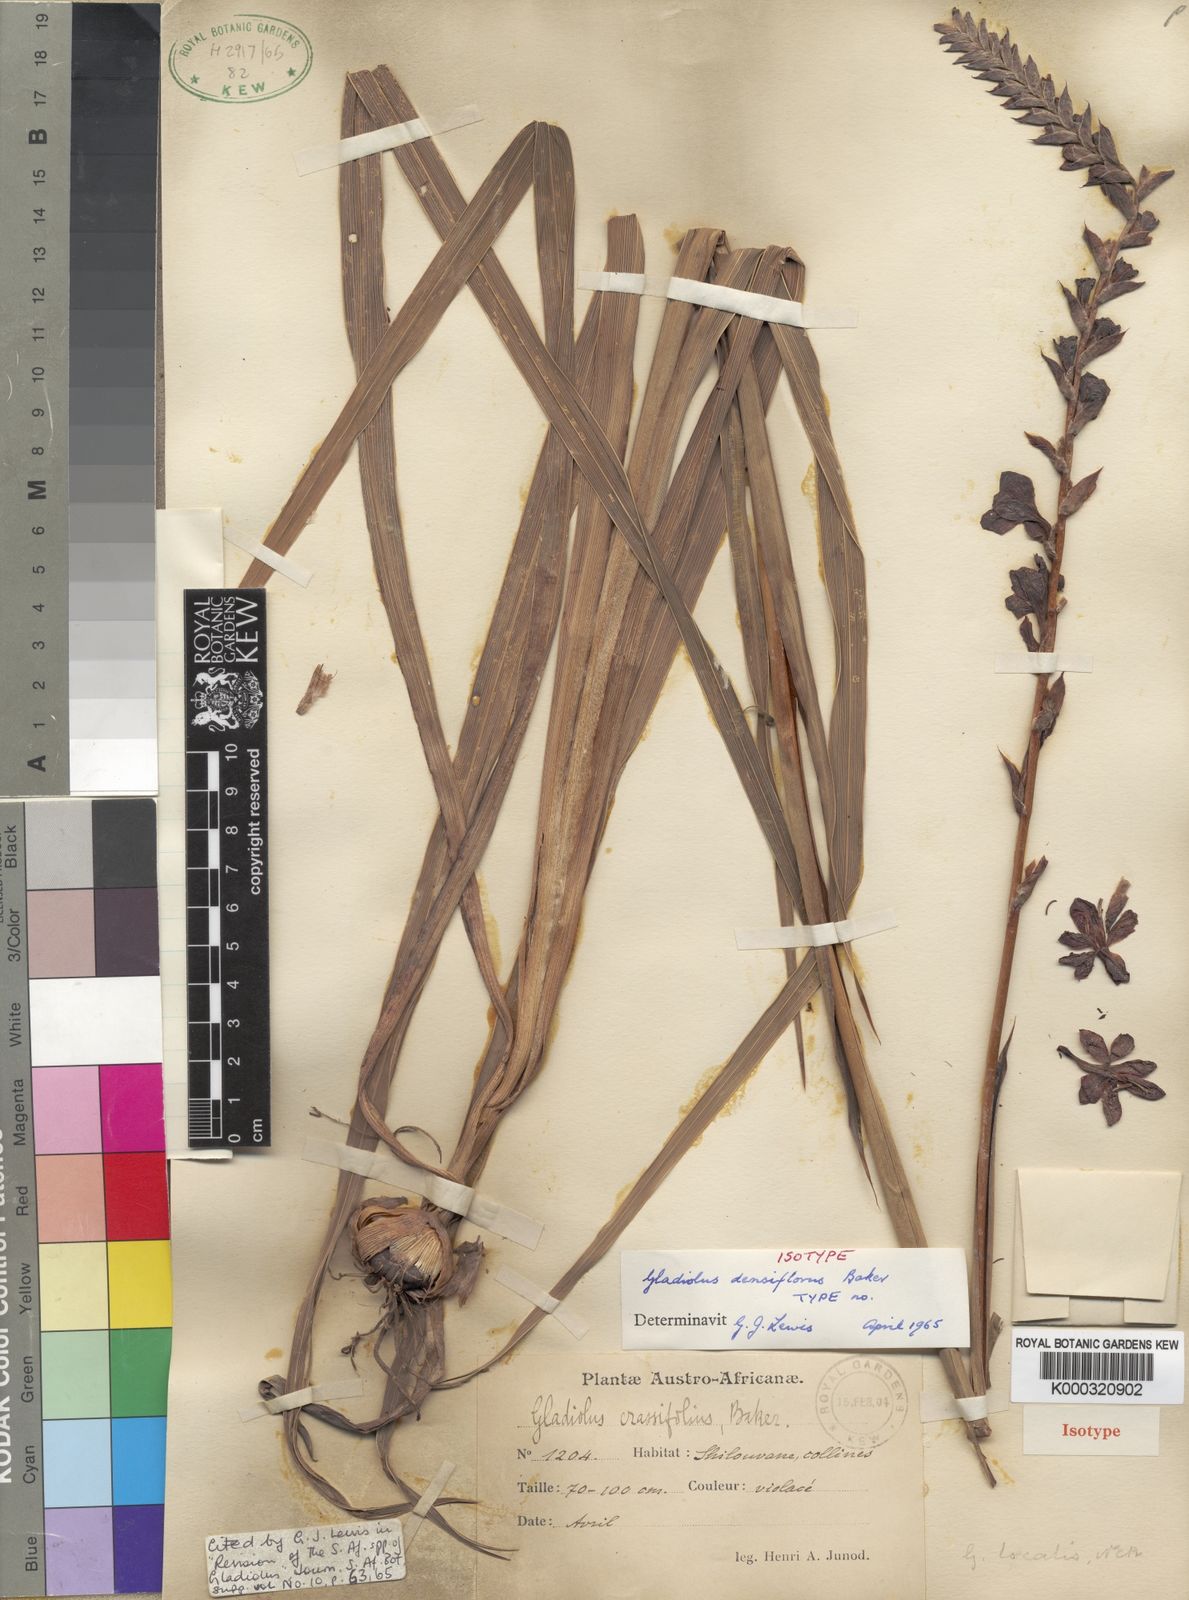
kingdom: Plantae
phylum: Tracheophyta
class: Liliopsida
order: Asparagales
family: Iridaceae
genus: Gladiolus
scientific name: Gladiolus densiflorus
